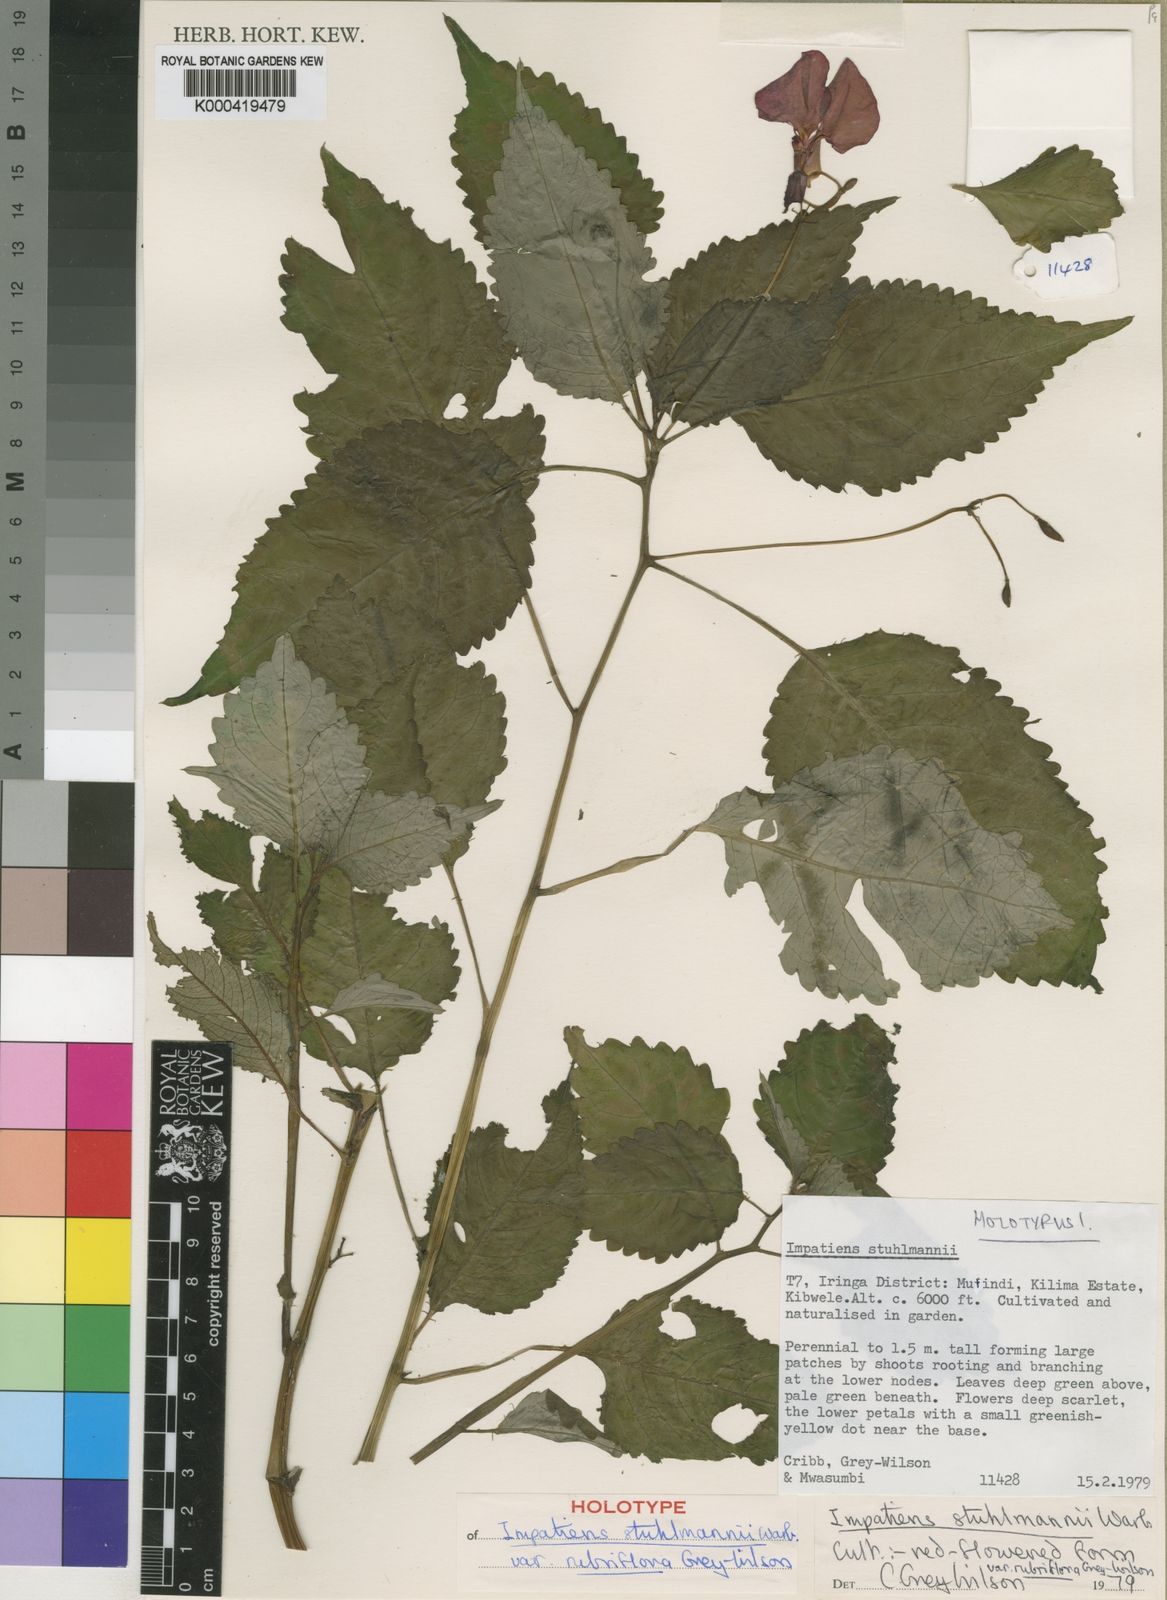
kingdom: Plantae
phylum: Tracheophyta
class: Magnoliopsida
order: Ericales
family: Balsaminaceae
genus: Impatiens
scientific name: Impatiens stuhlmannii
